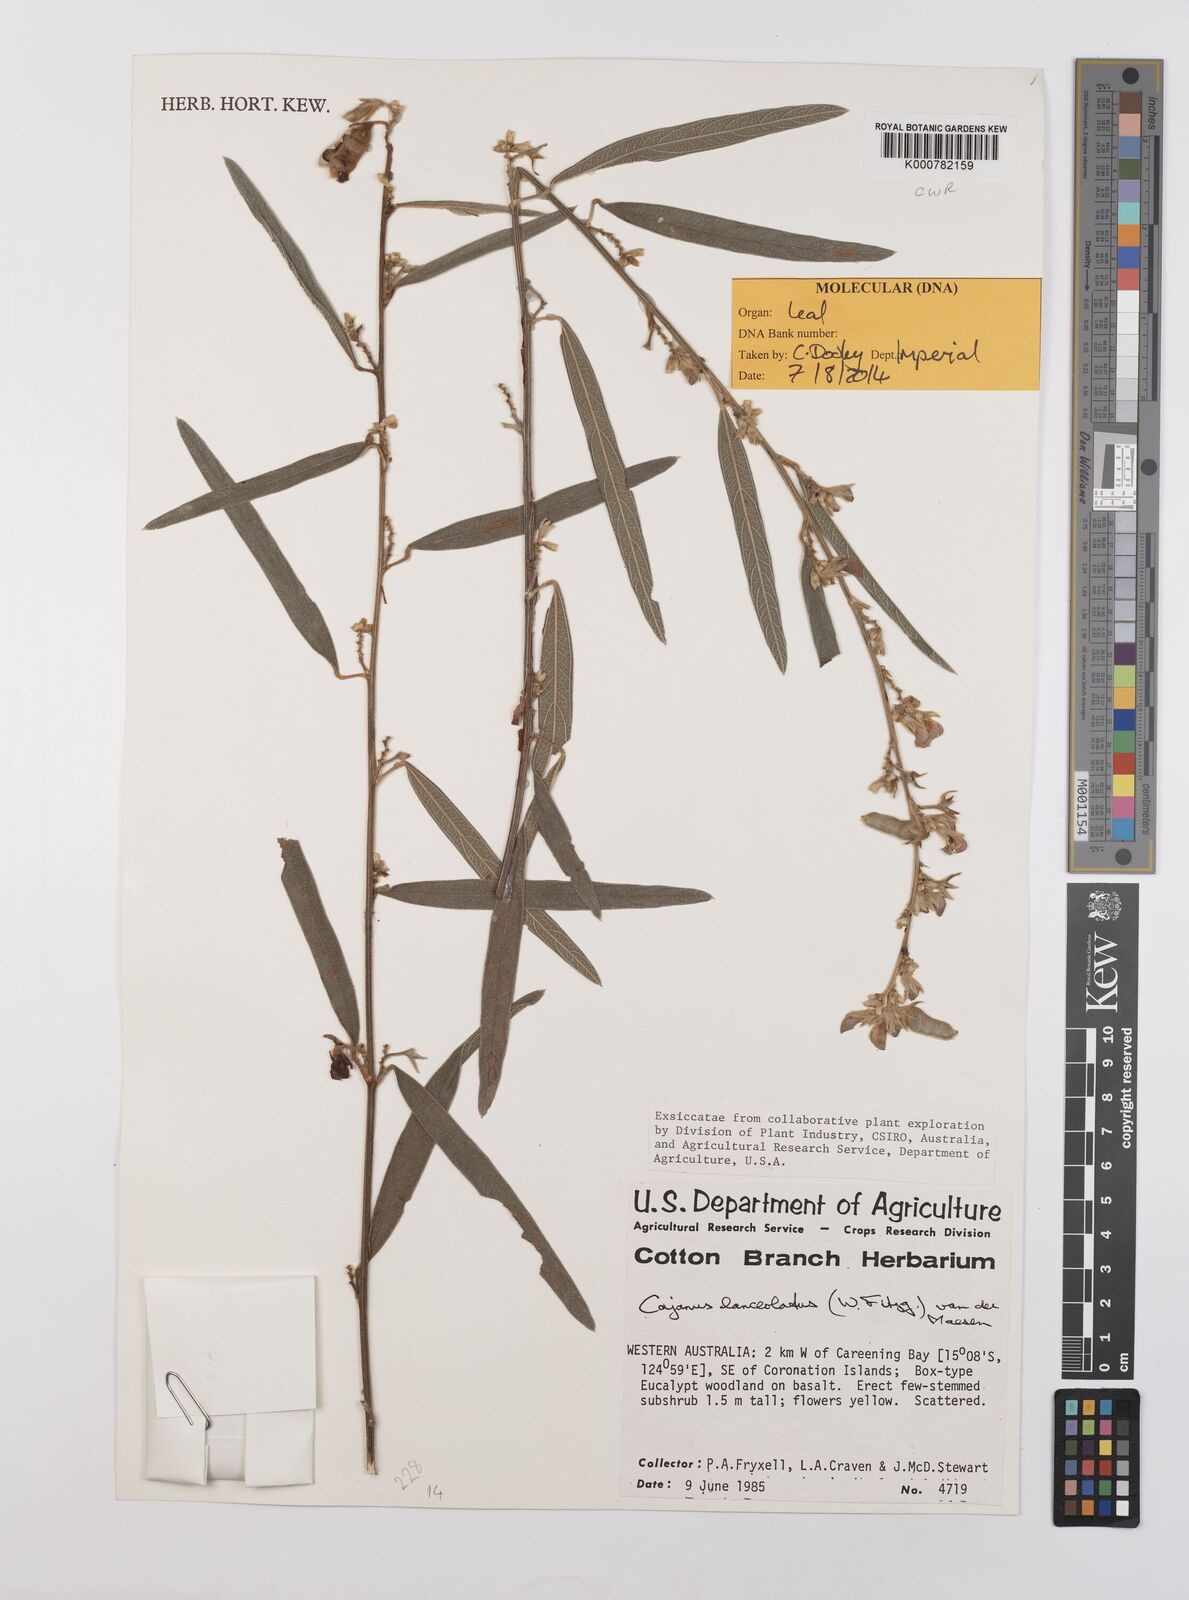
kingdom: Plantae
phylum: Tracheophyta
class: Magnoliopsida
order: Fabales
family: Fabaceae
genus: Cajanus
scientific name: Cajanus lanceolatus
